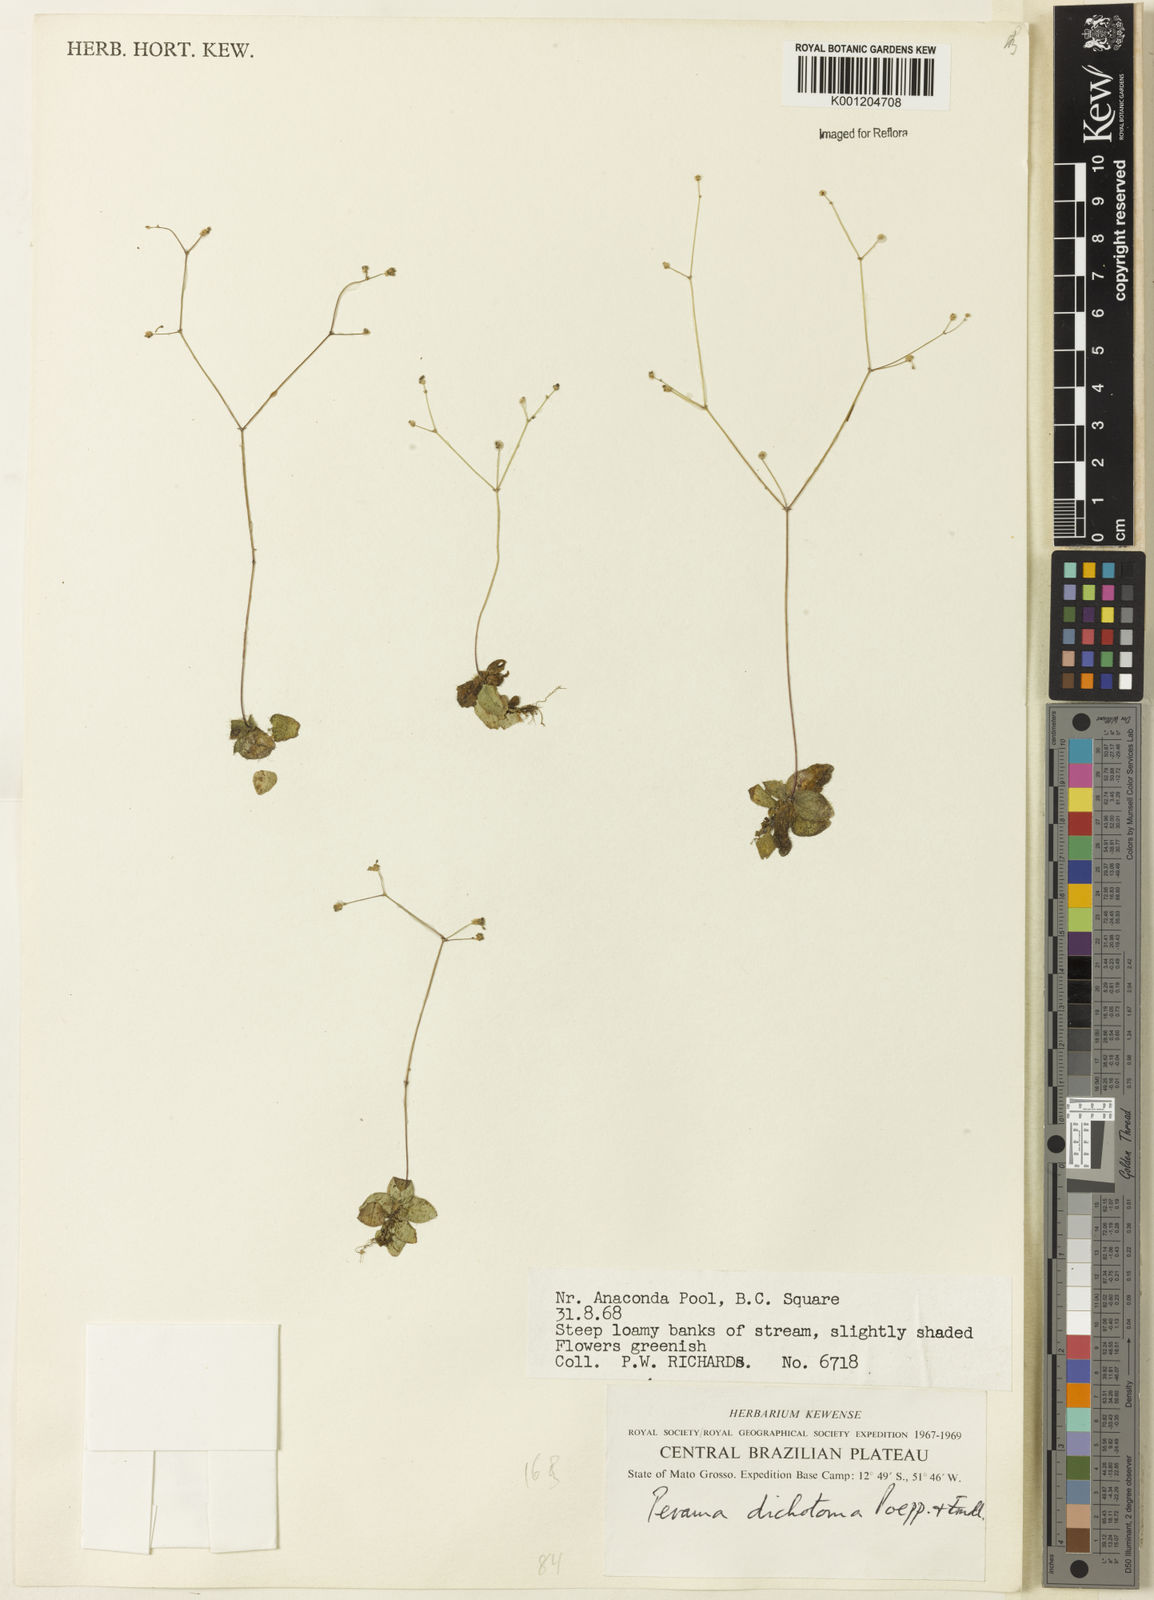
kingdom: Plantae
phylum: Tracheophyta
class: Magnoliopsida
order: Gentianales
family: Rubiaceae
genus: Perama
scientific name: Perama dichotoma
